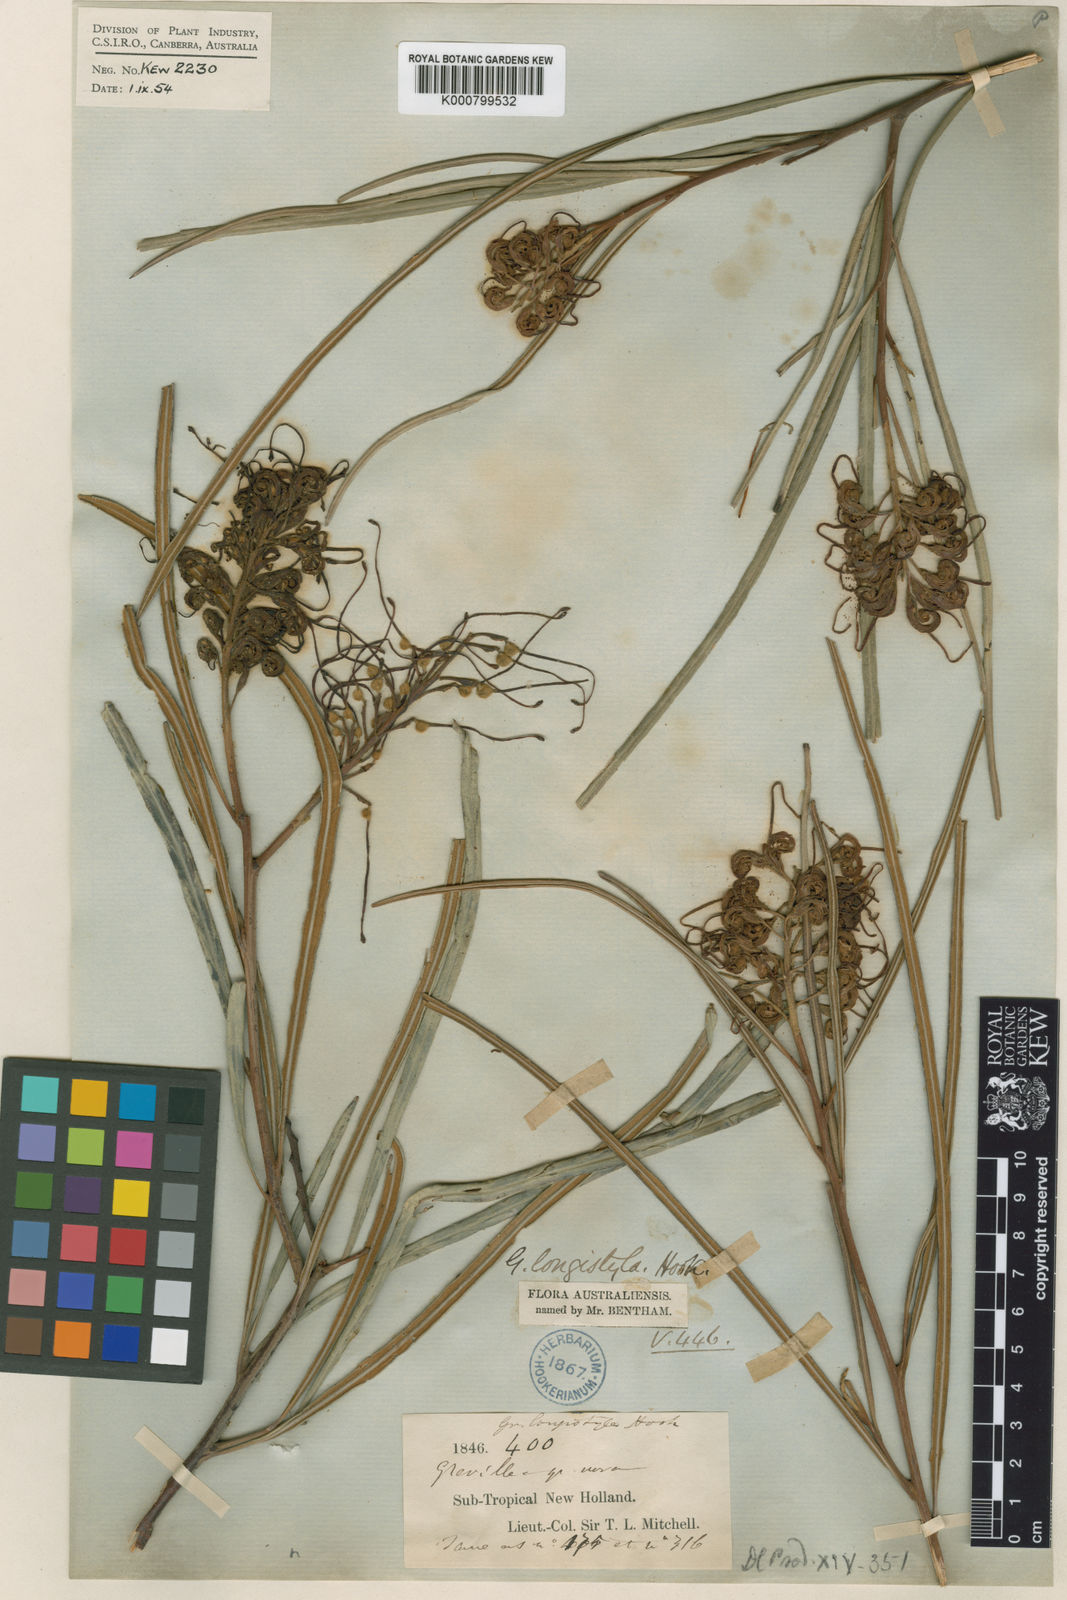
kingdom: Plantae
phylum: Tracheophyta
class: Magnoliopsida
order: Proteales
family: Proteaceae
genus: Grevillea
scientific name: Grevillea longistyla
